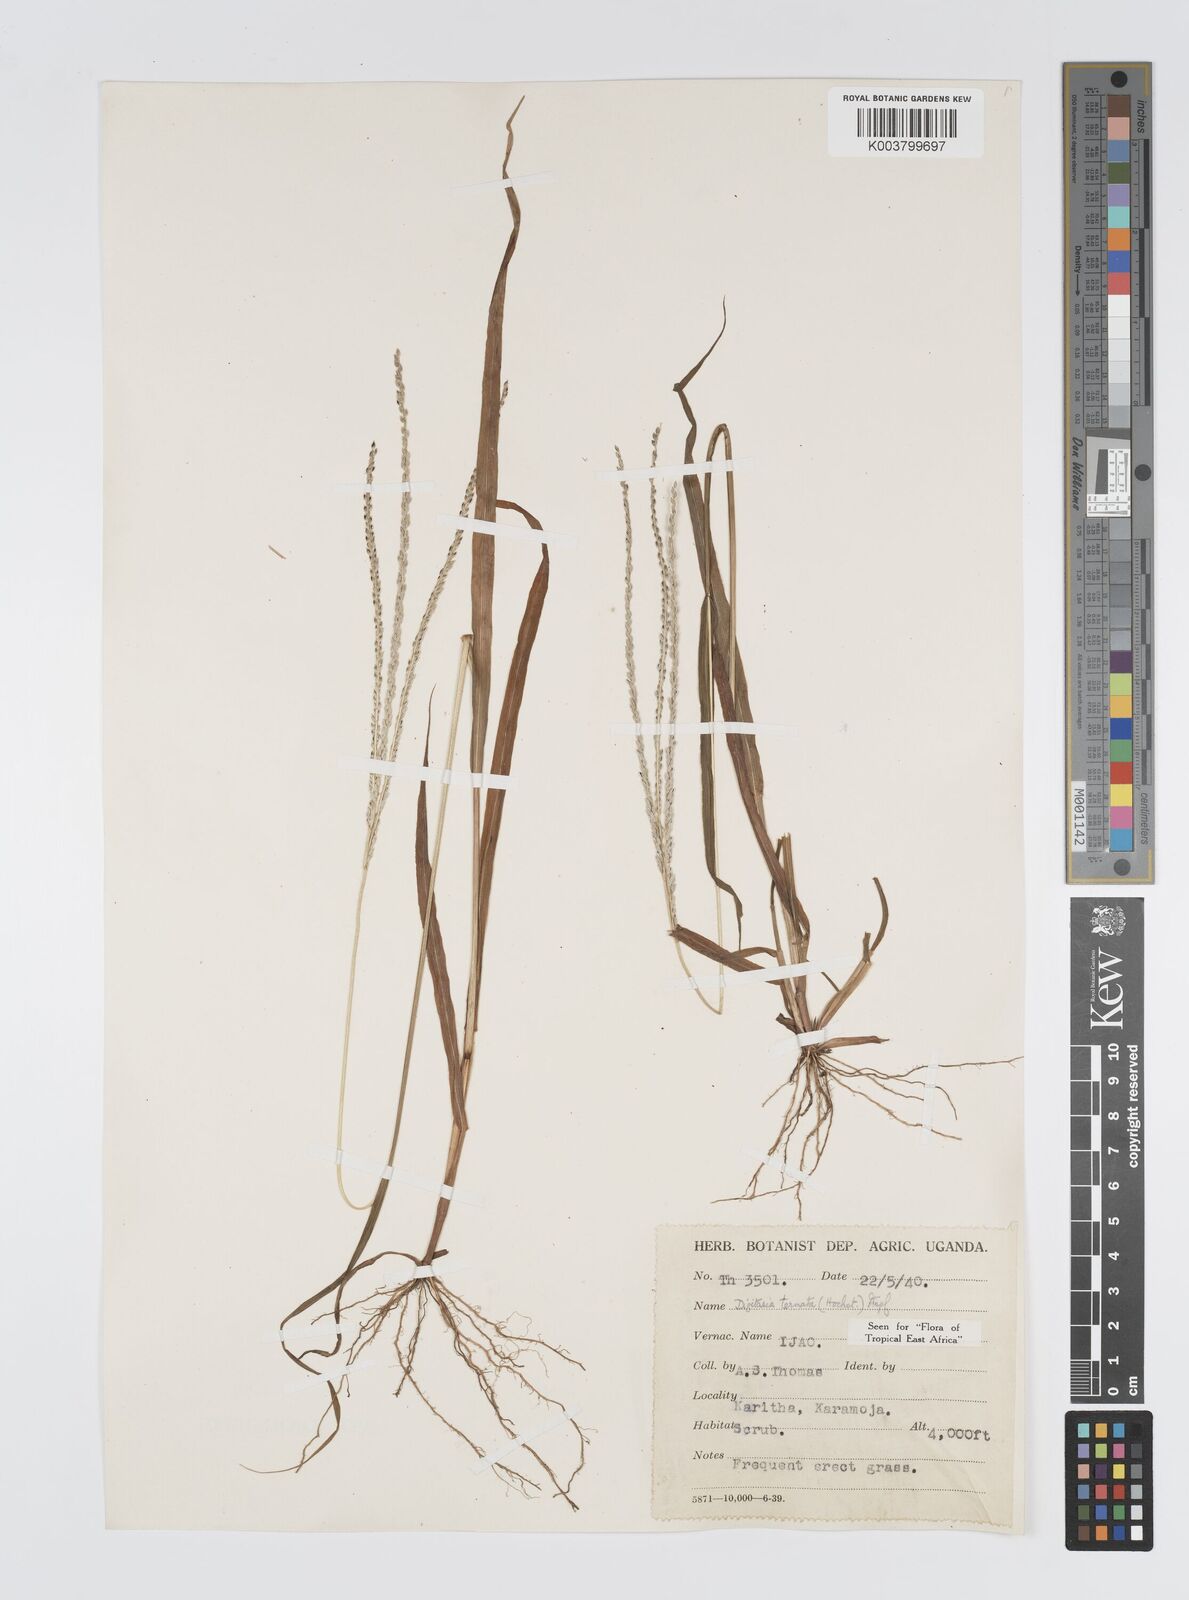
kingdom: Plantae
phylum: Tracheophyta
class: Liliopsida
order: Poales
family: Poaceae
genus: Digitaria
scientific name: Digitaria ternata
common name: Blackseed crabgrass
